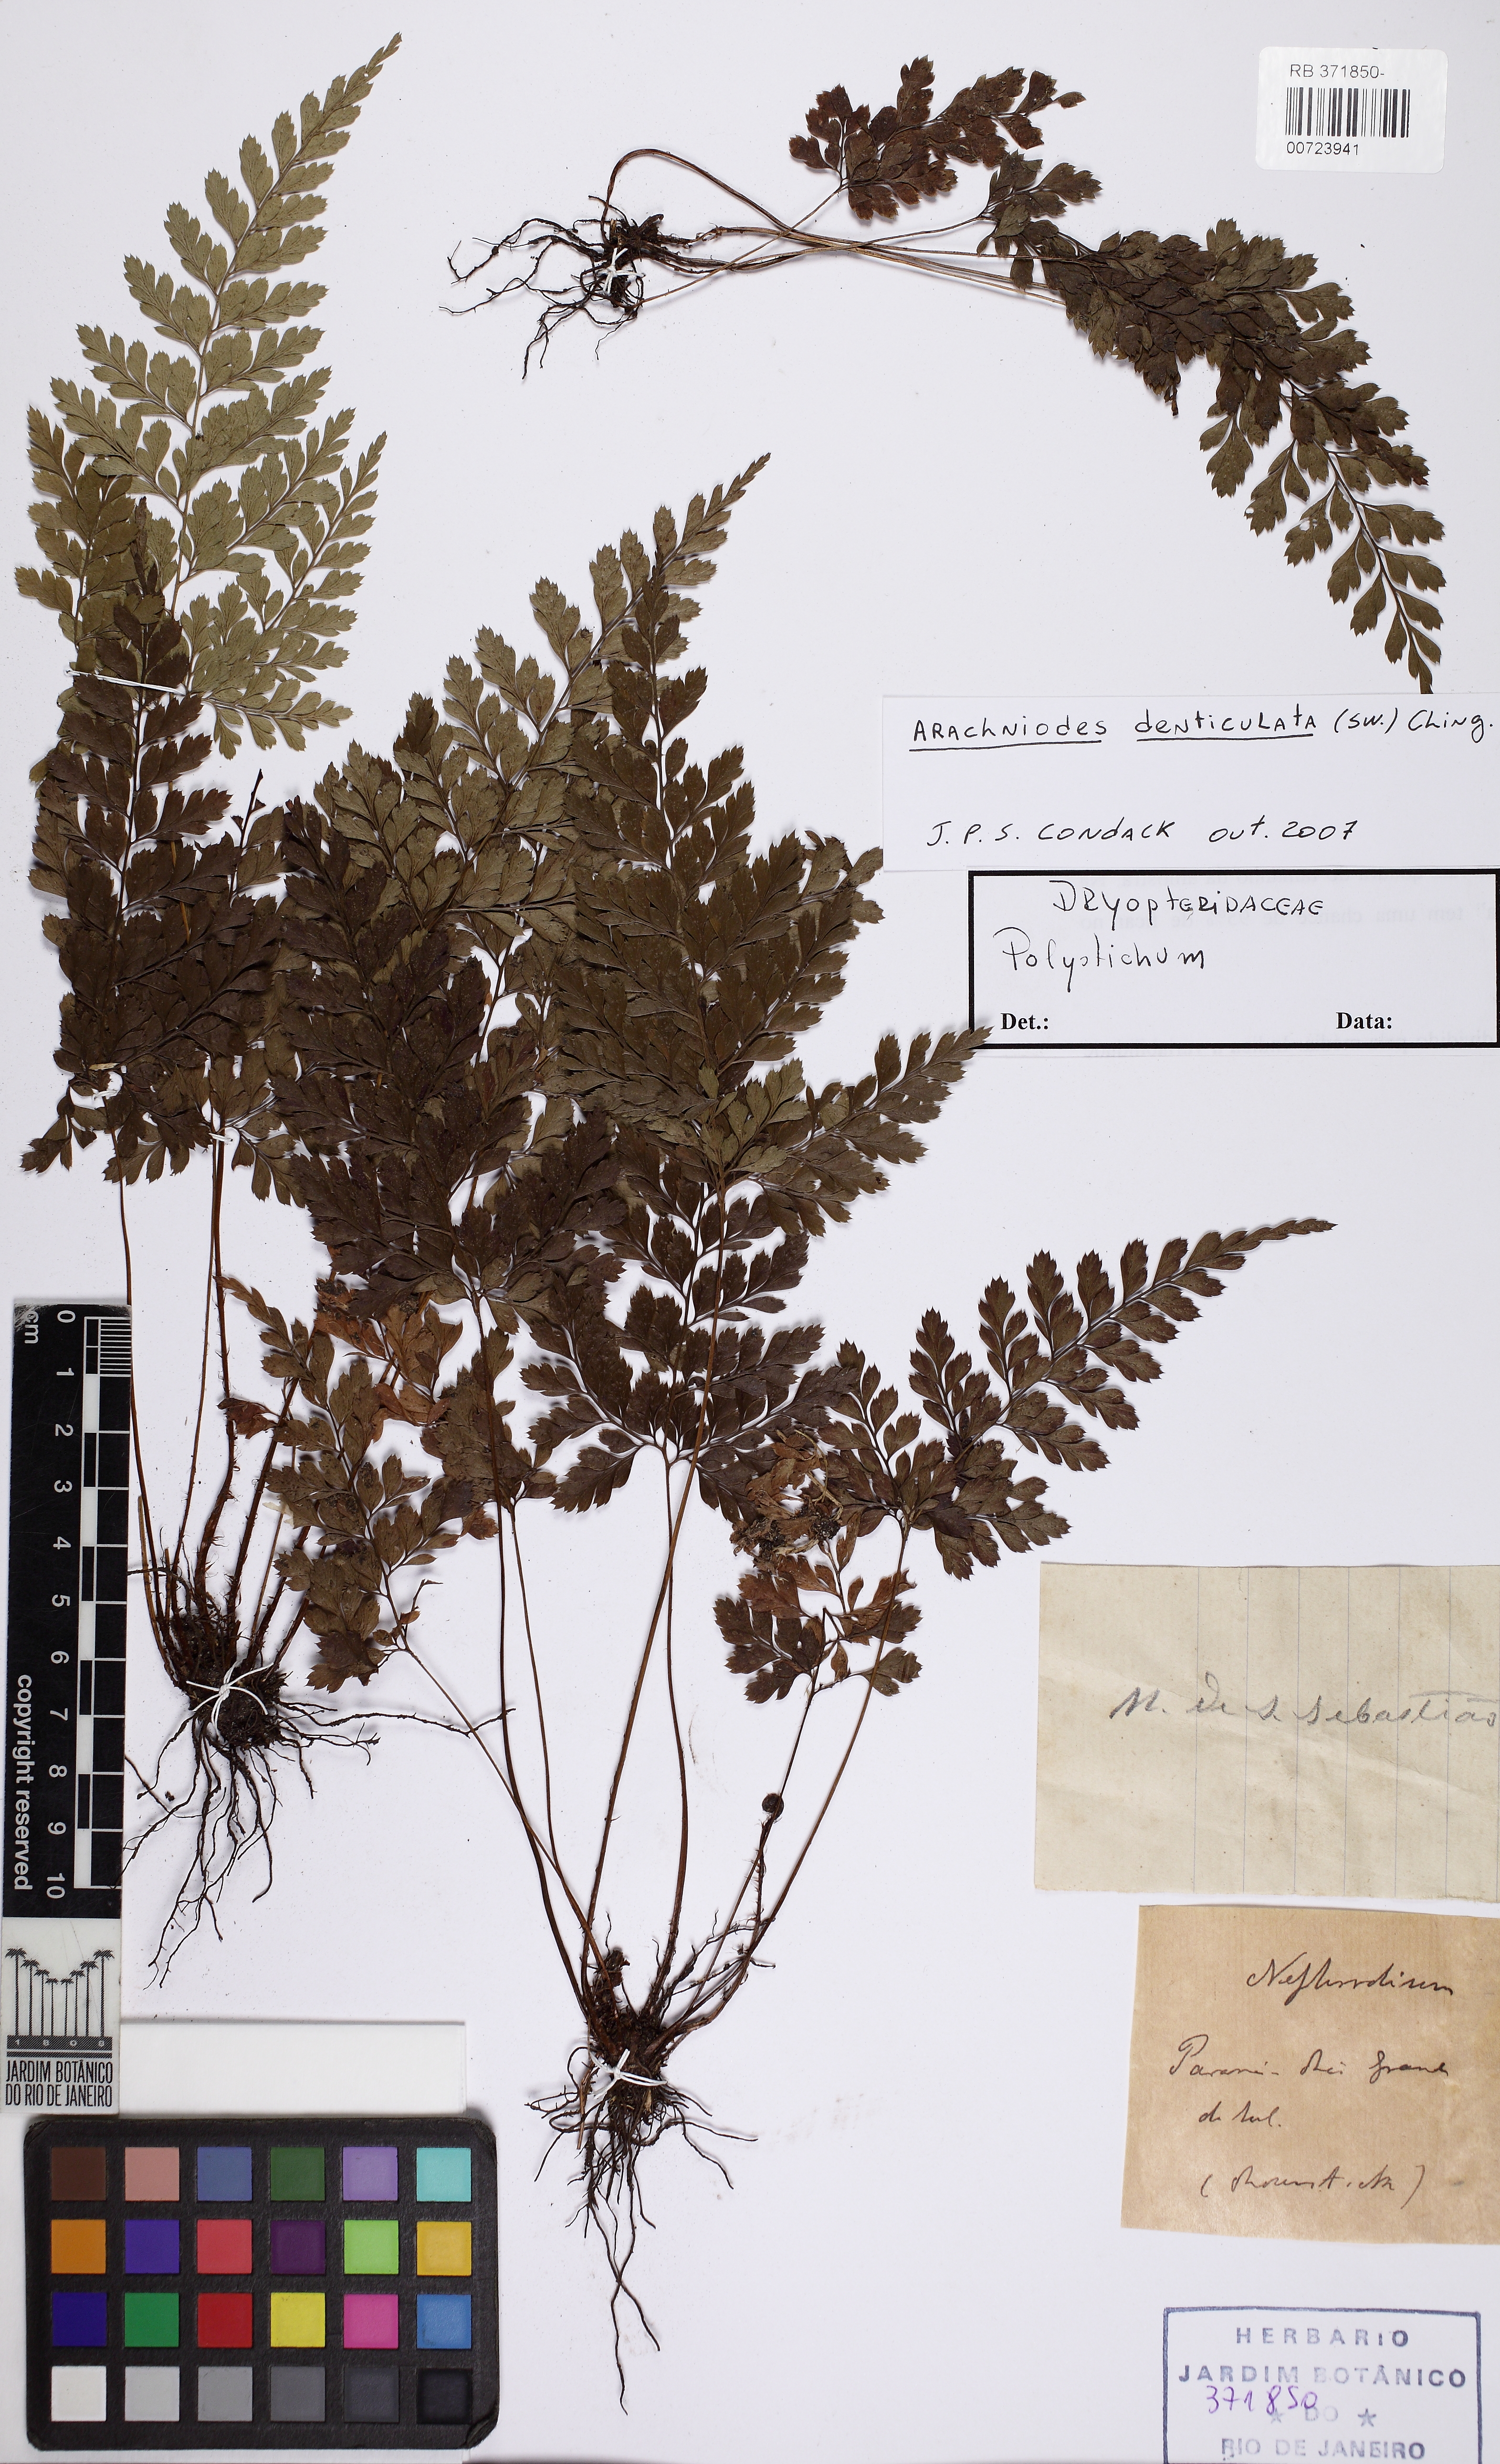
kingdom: Plantae
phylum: Tracheophyta
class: Polypodiopsida
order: Polypodiales
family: Dryopteridaceae
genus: Arachniodes
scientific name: Arachniodes denticulata
